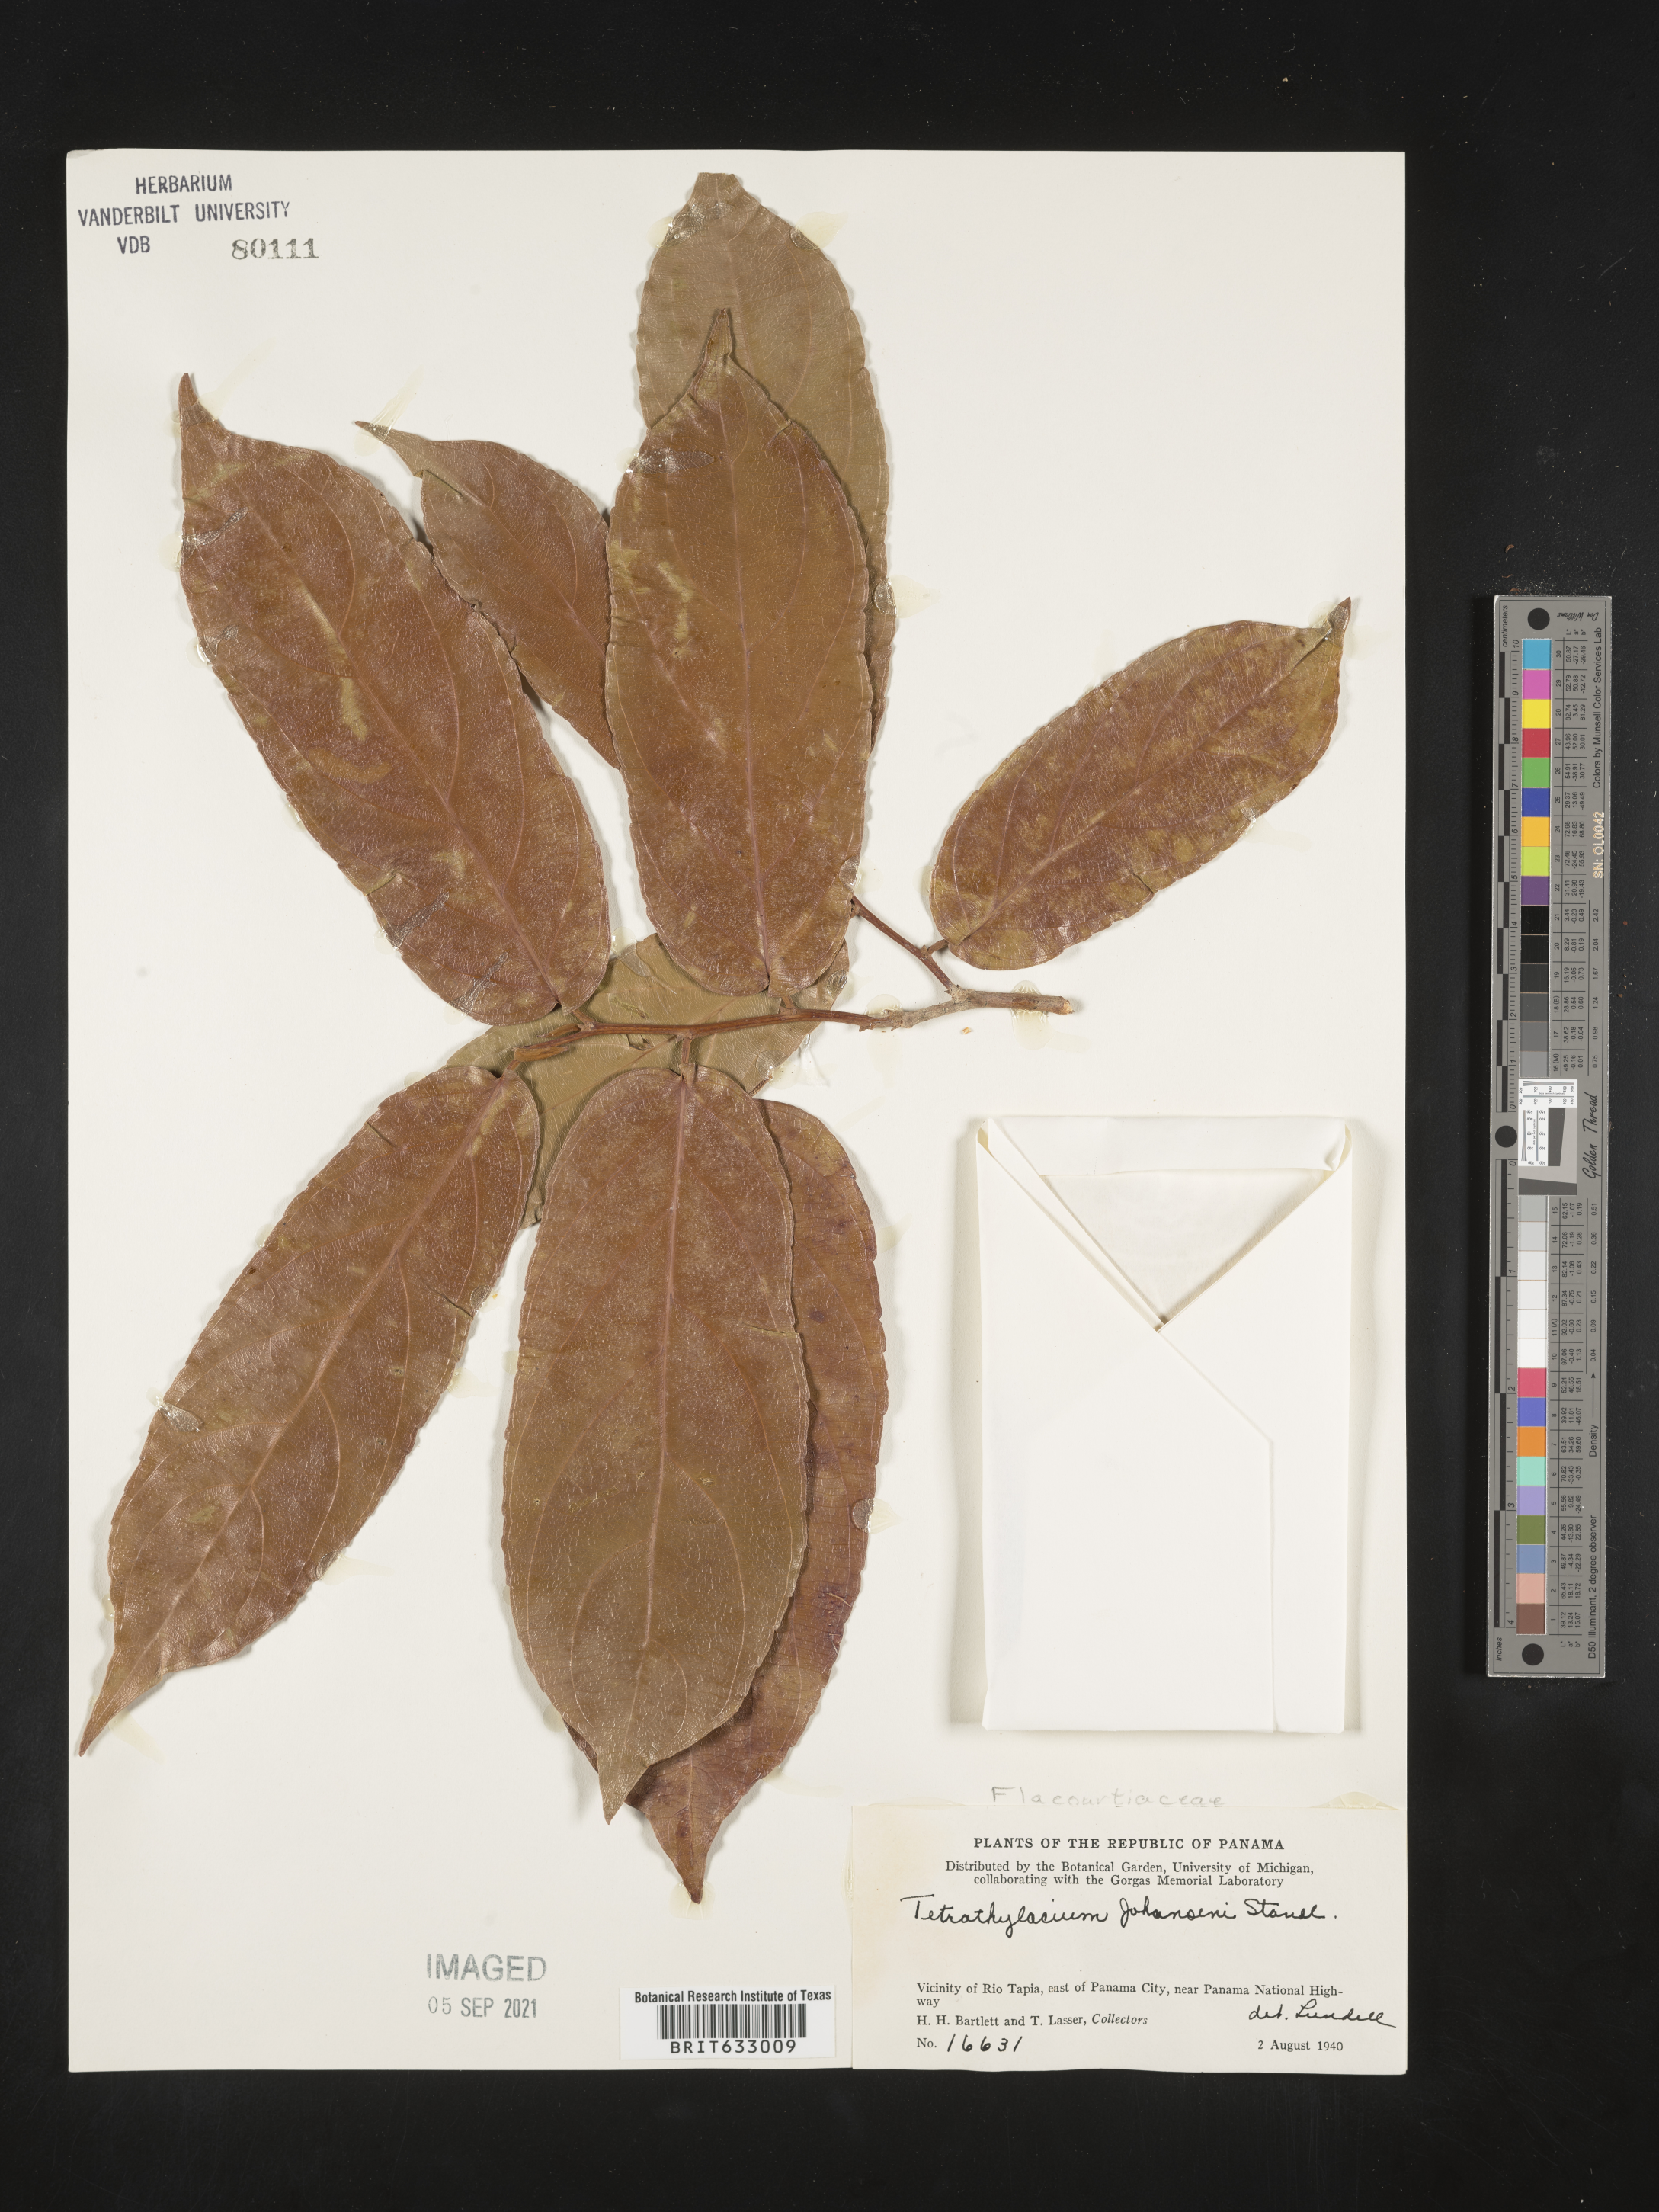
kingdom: Plantae
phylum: Tracheophyta
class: Magnoliopsida
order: Malpighiales
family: Salicaceae
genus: Tetrathylacium
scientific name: Tetrathylacium
